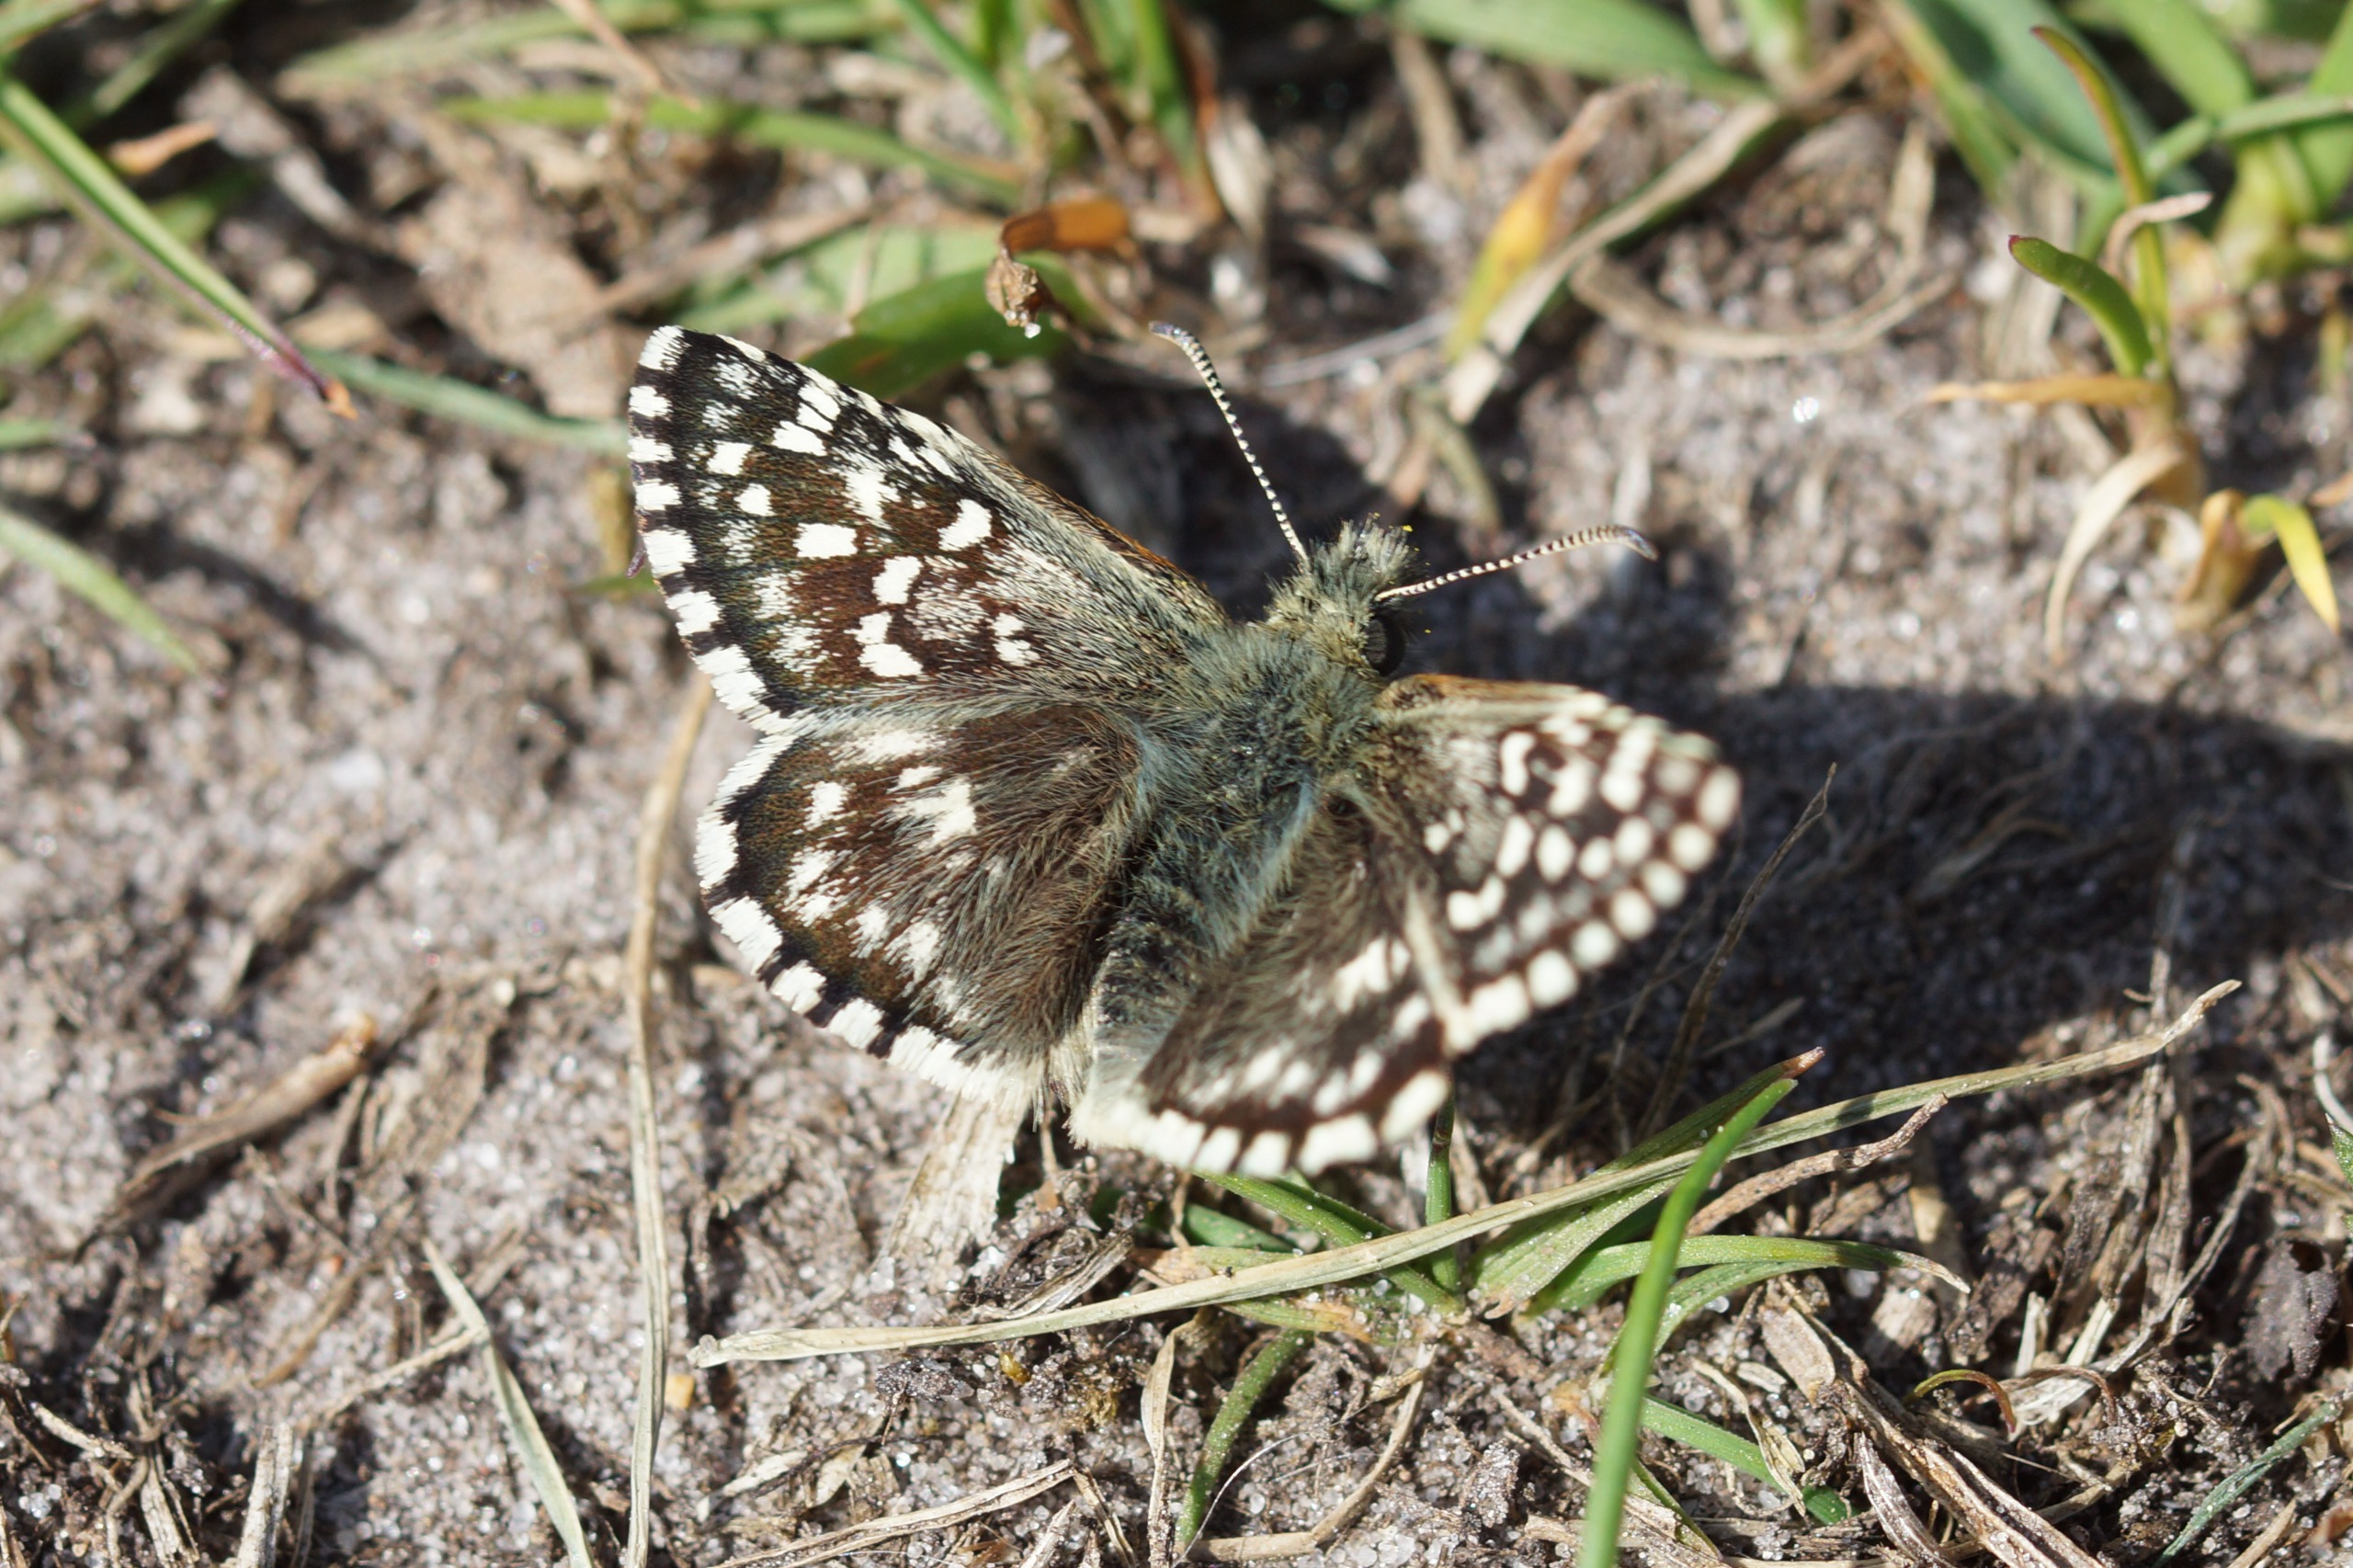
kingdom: Animalia
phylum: Arthropoda
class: Insecta
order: Lepidoptera
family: Hesperiidae
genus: Pyrgus
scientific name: Pyrgus malvae
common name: Spættet bredpande
